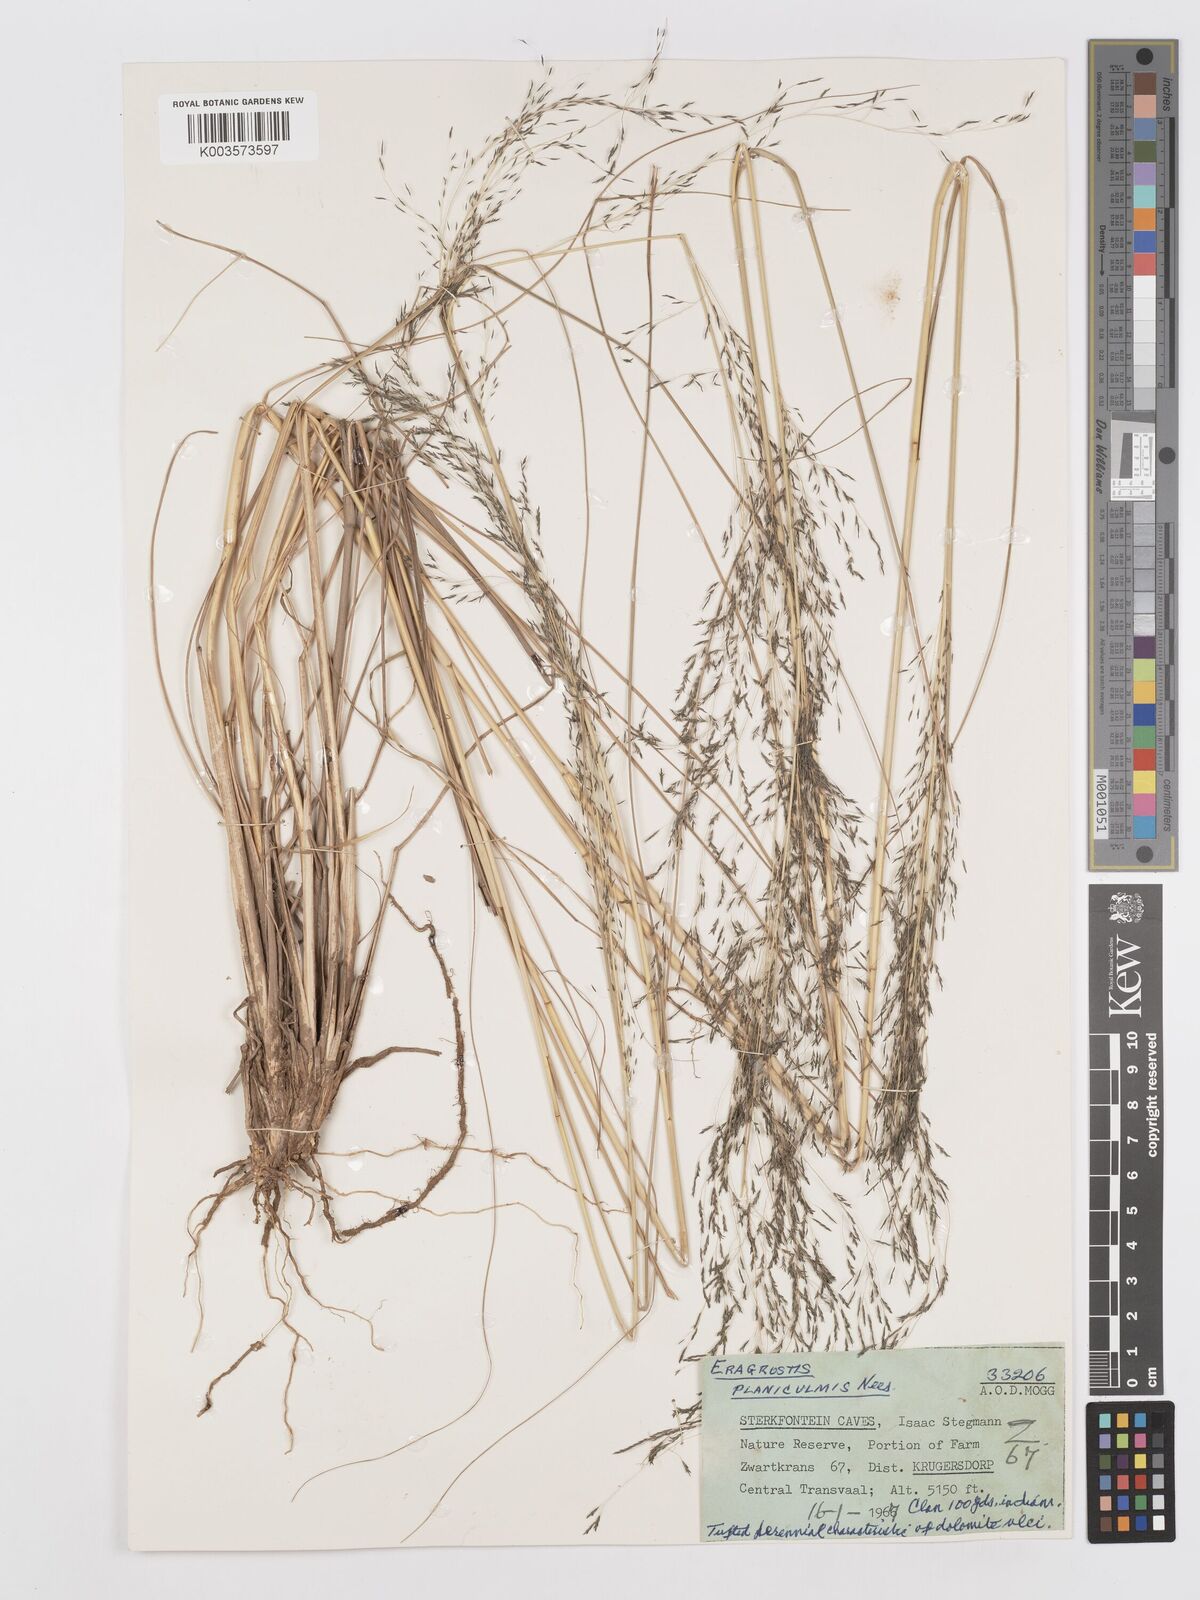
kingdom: Plantae
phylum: Tracheophyta
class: Liliopsida
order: Poales
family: Poaceae
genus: Eragrostis
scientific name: Eragrostis planiculmis
